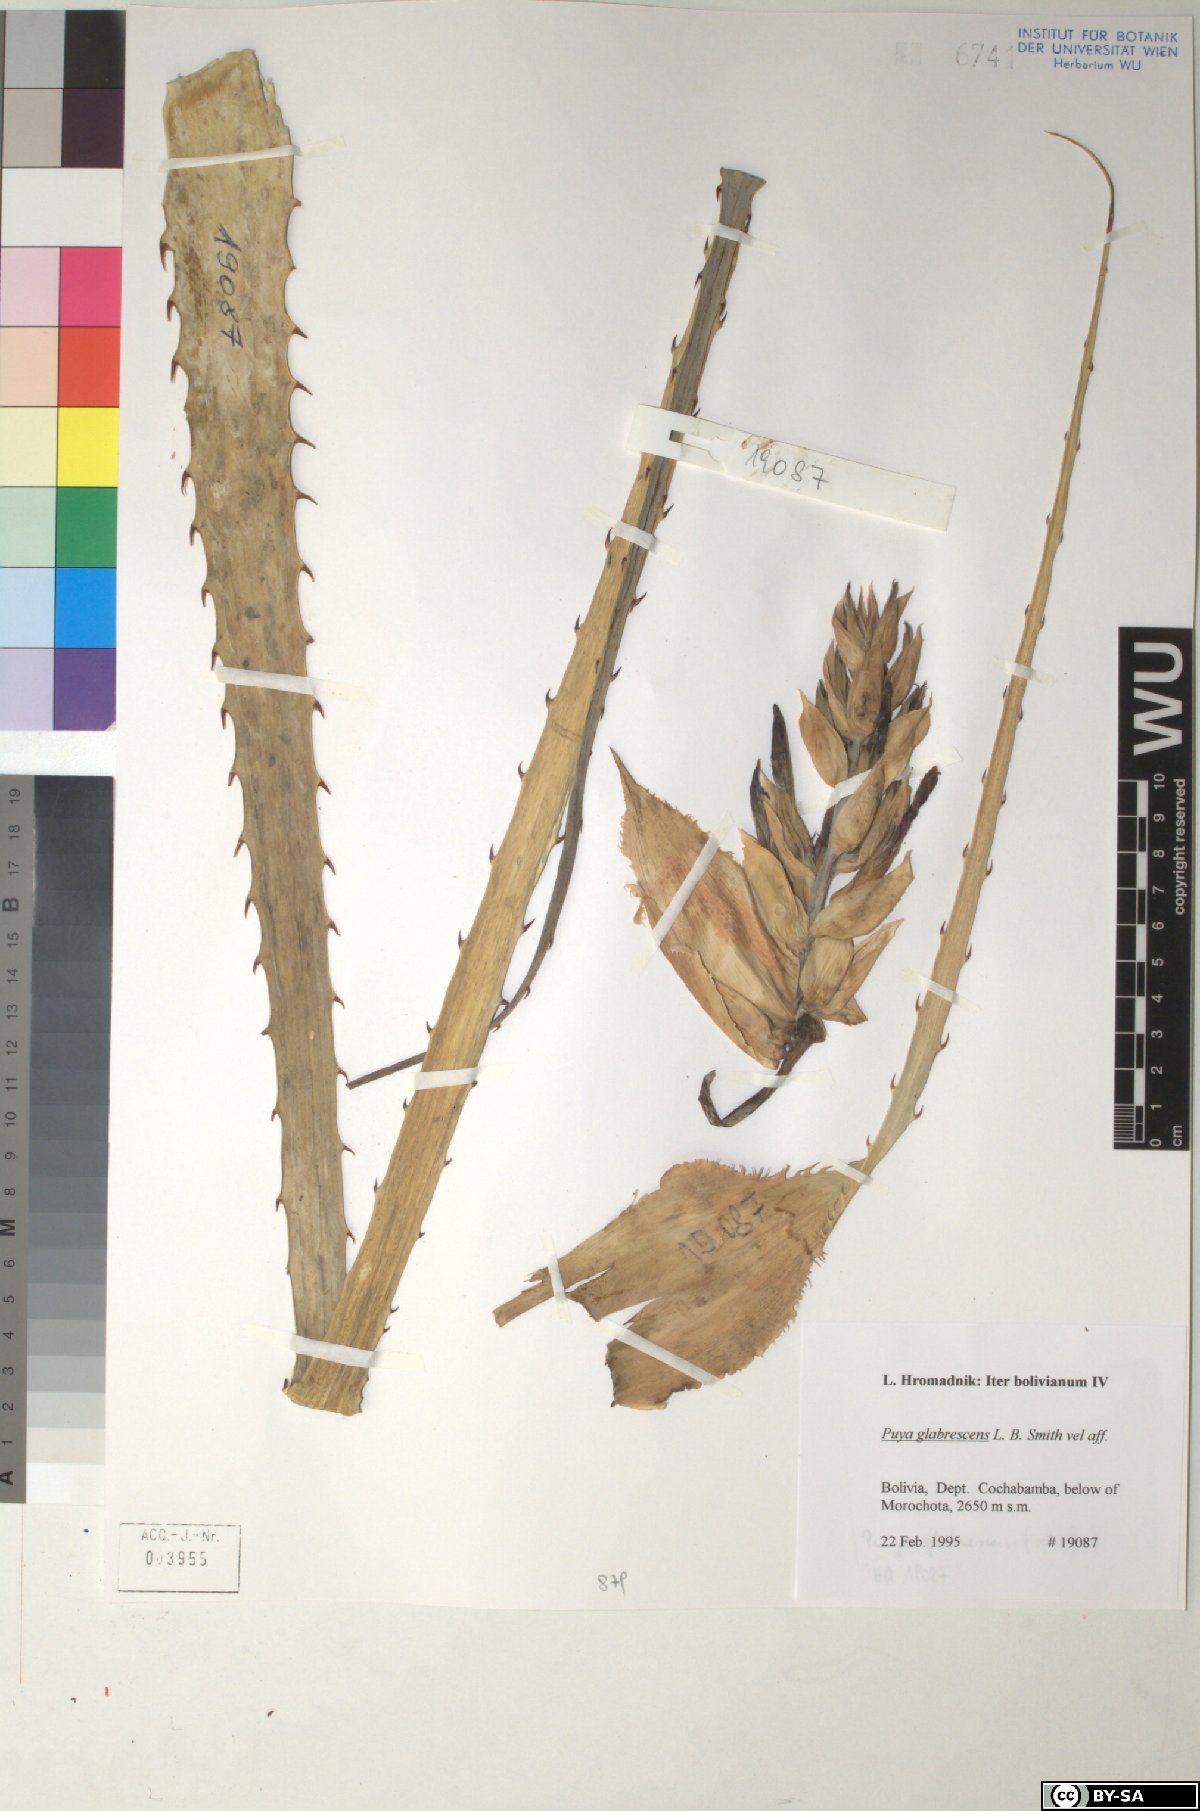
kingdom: Plantae
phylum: Tracheophyta
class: Liliopsida
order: Poales
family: Bromeliaceae
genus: Puya
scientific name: Puya glabrescens
